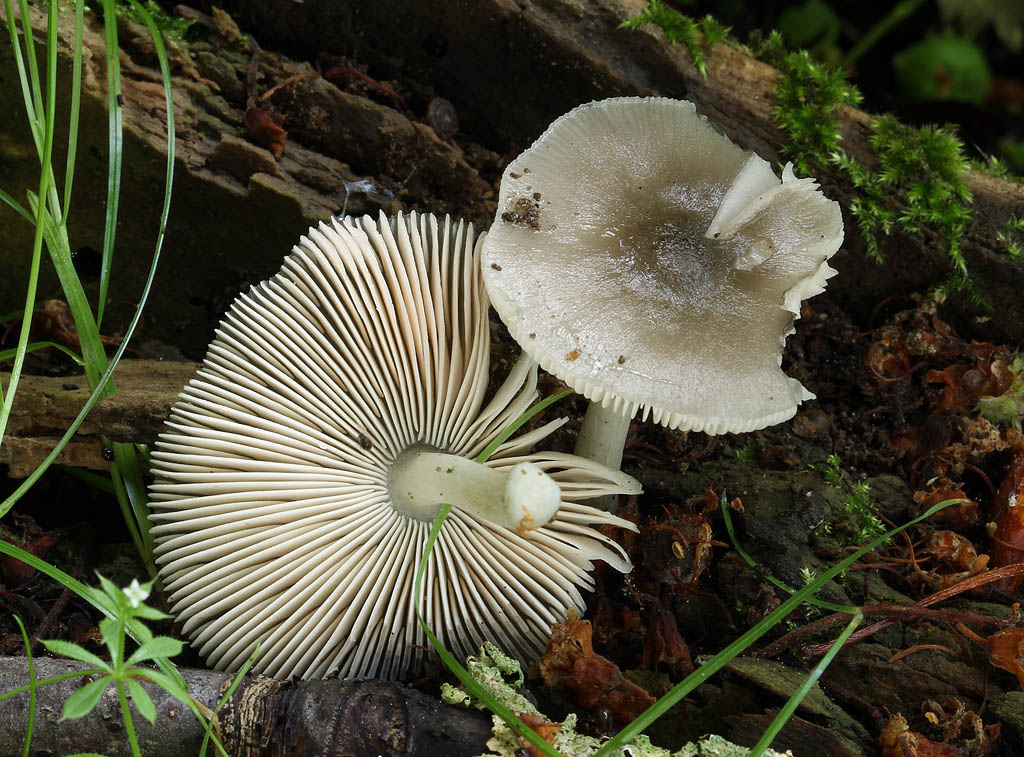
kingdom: Fungi
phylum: Basidiomycota
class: Agaricomycetes
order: Agaricales
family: Pluteaceae
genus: Pluteus
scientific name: Pluteus salicinus
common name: stiv skærmhat
